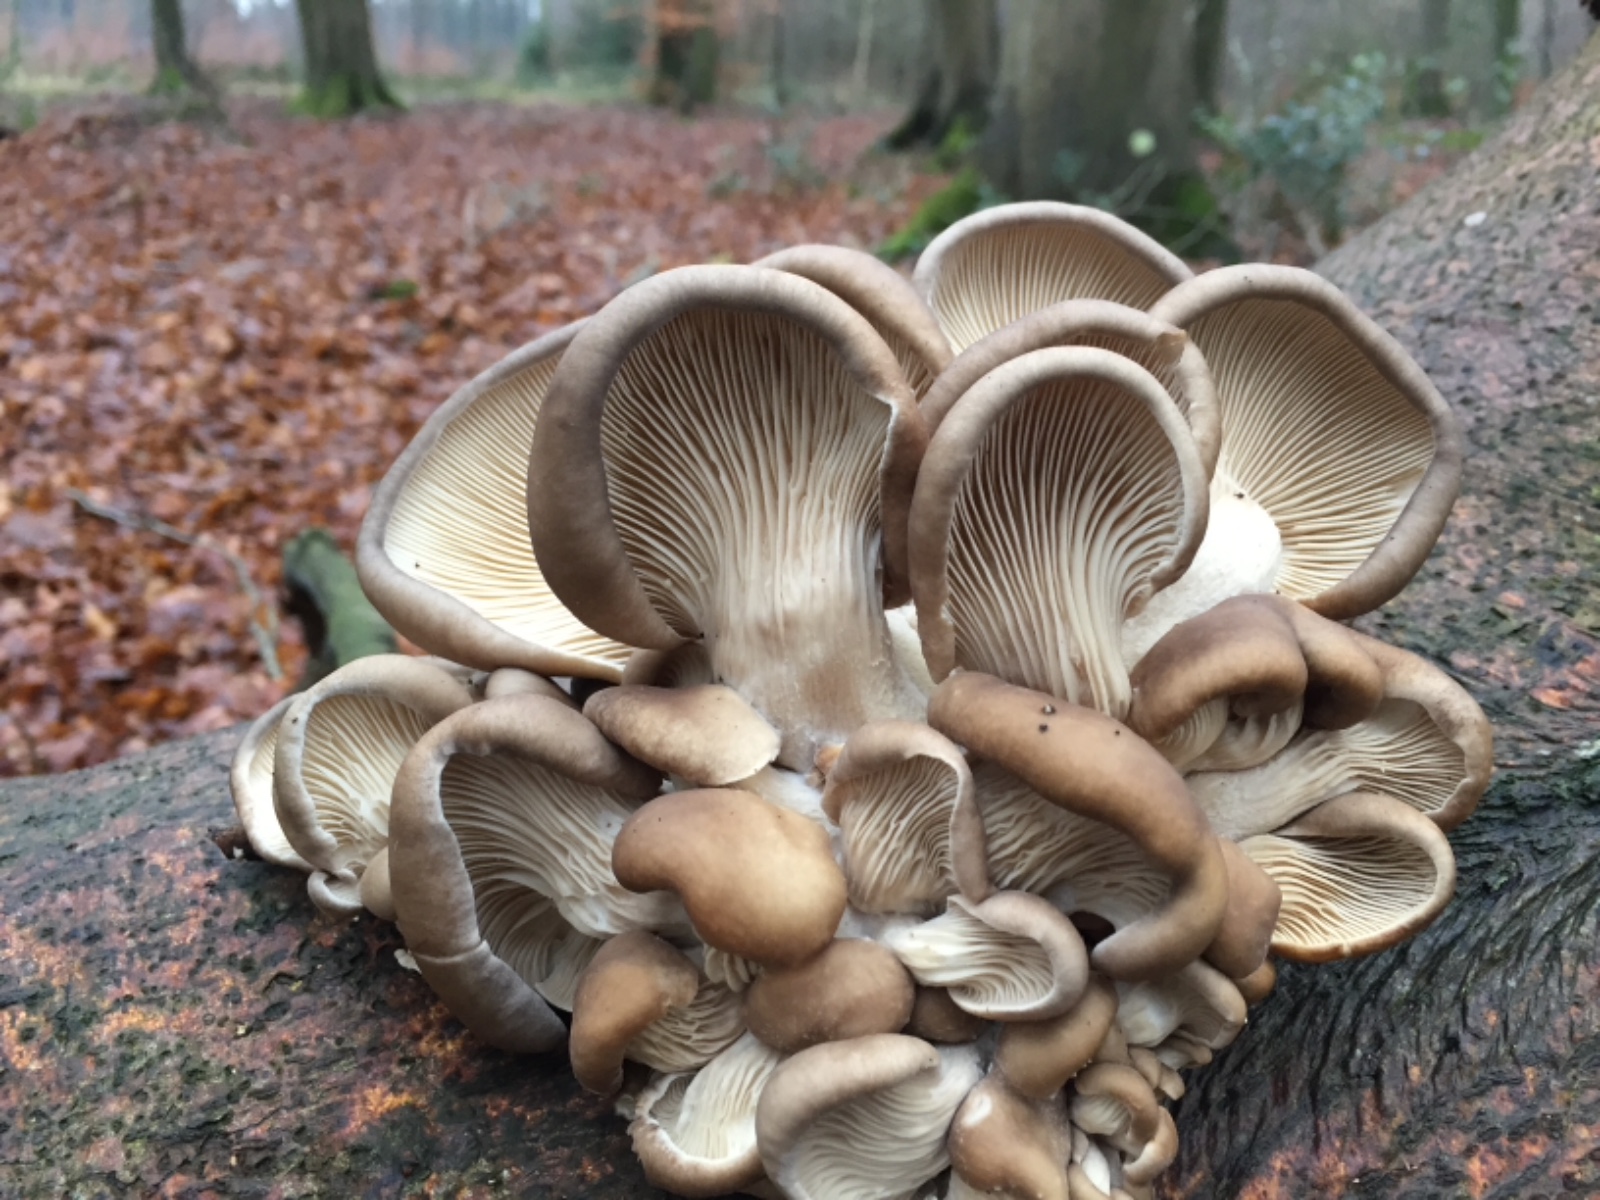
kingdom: Fungi
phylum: Basidiomycota
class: Agaricomycetes
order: Agaricales
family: Pleurotaceae
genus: Pleurotus
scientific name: Pleurotus ostreatus
